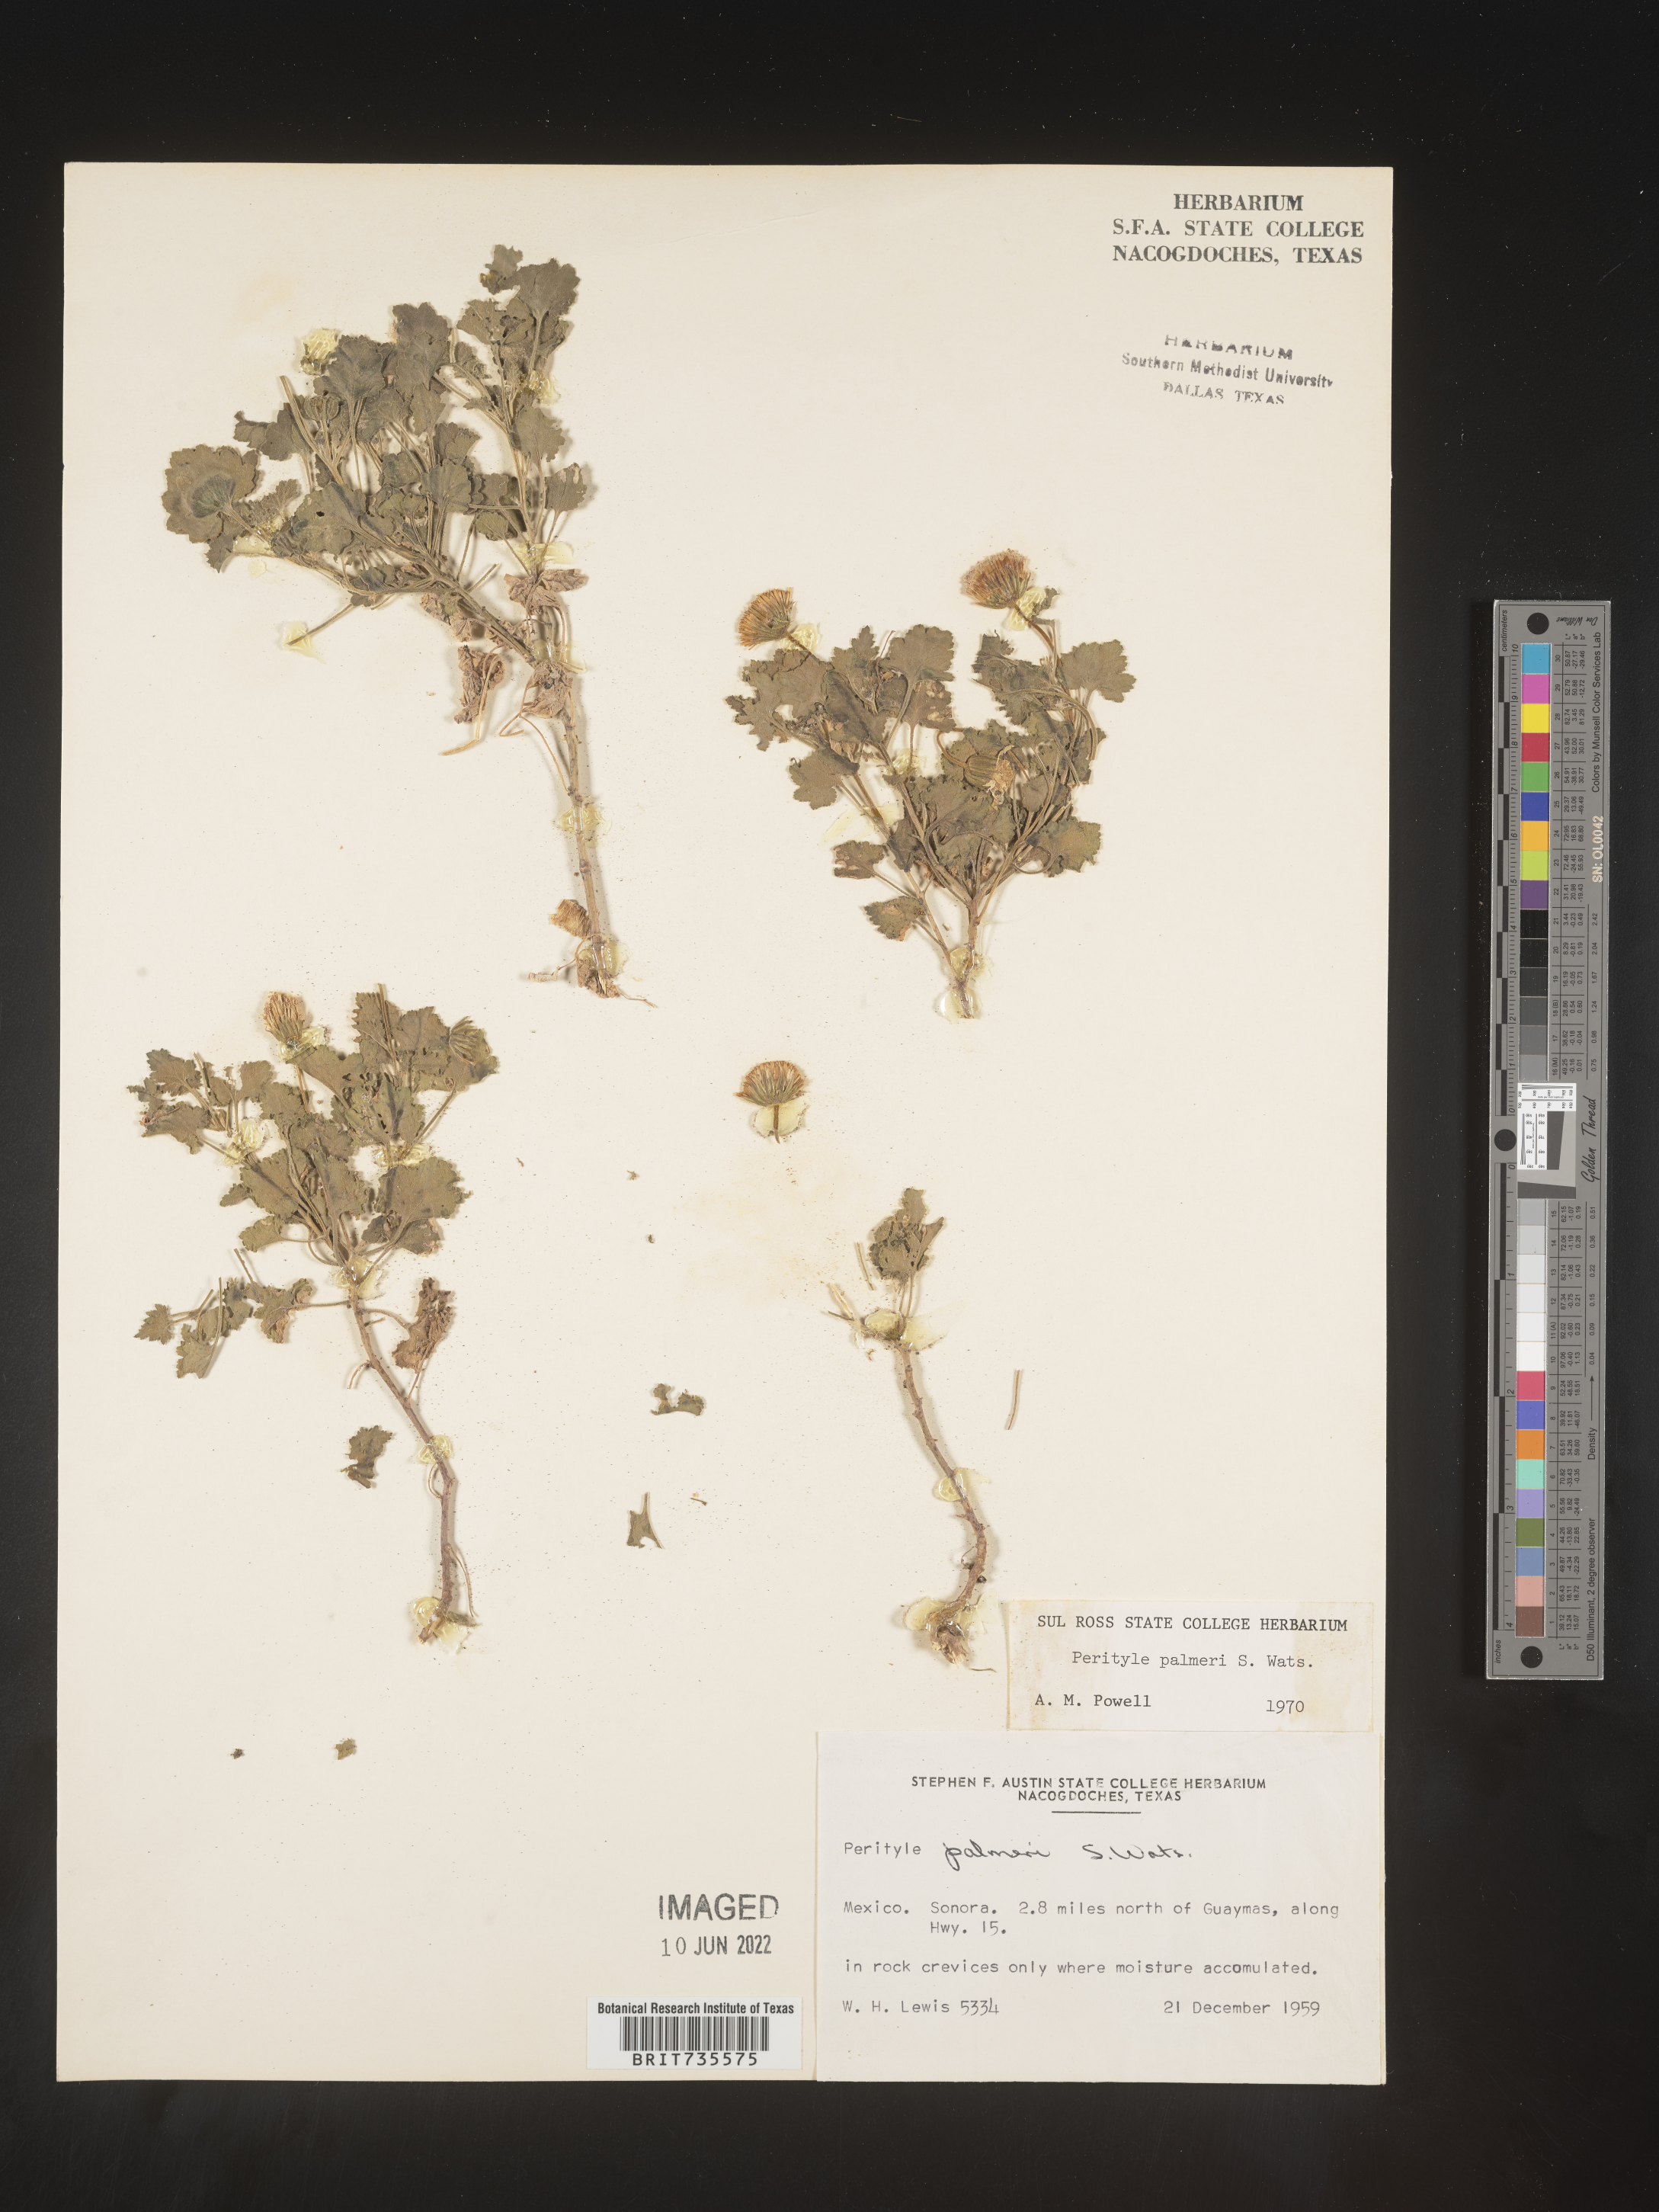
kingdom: Plantae
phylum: Tracheophyta
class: Magnoliopsida
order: Asterales
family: Asteraceae
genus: Perityle
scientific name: Perityle
